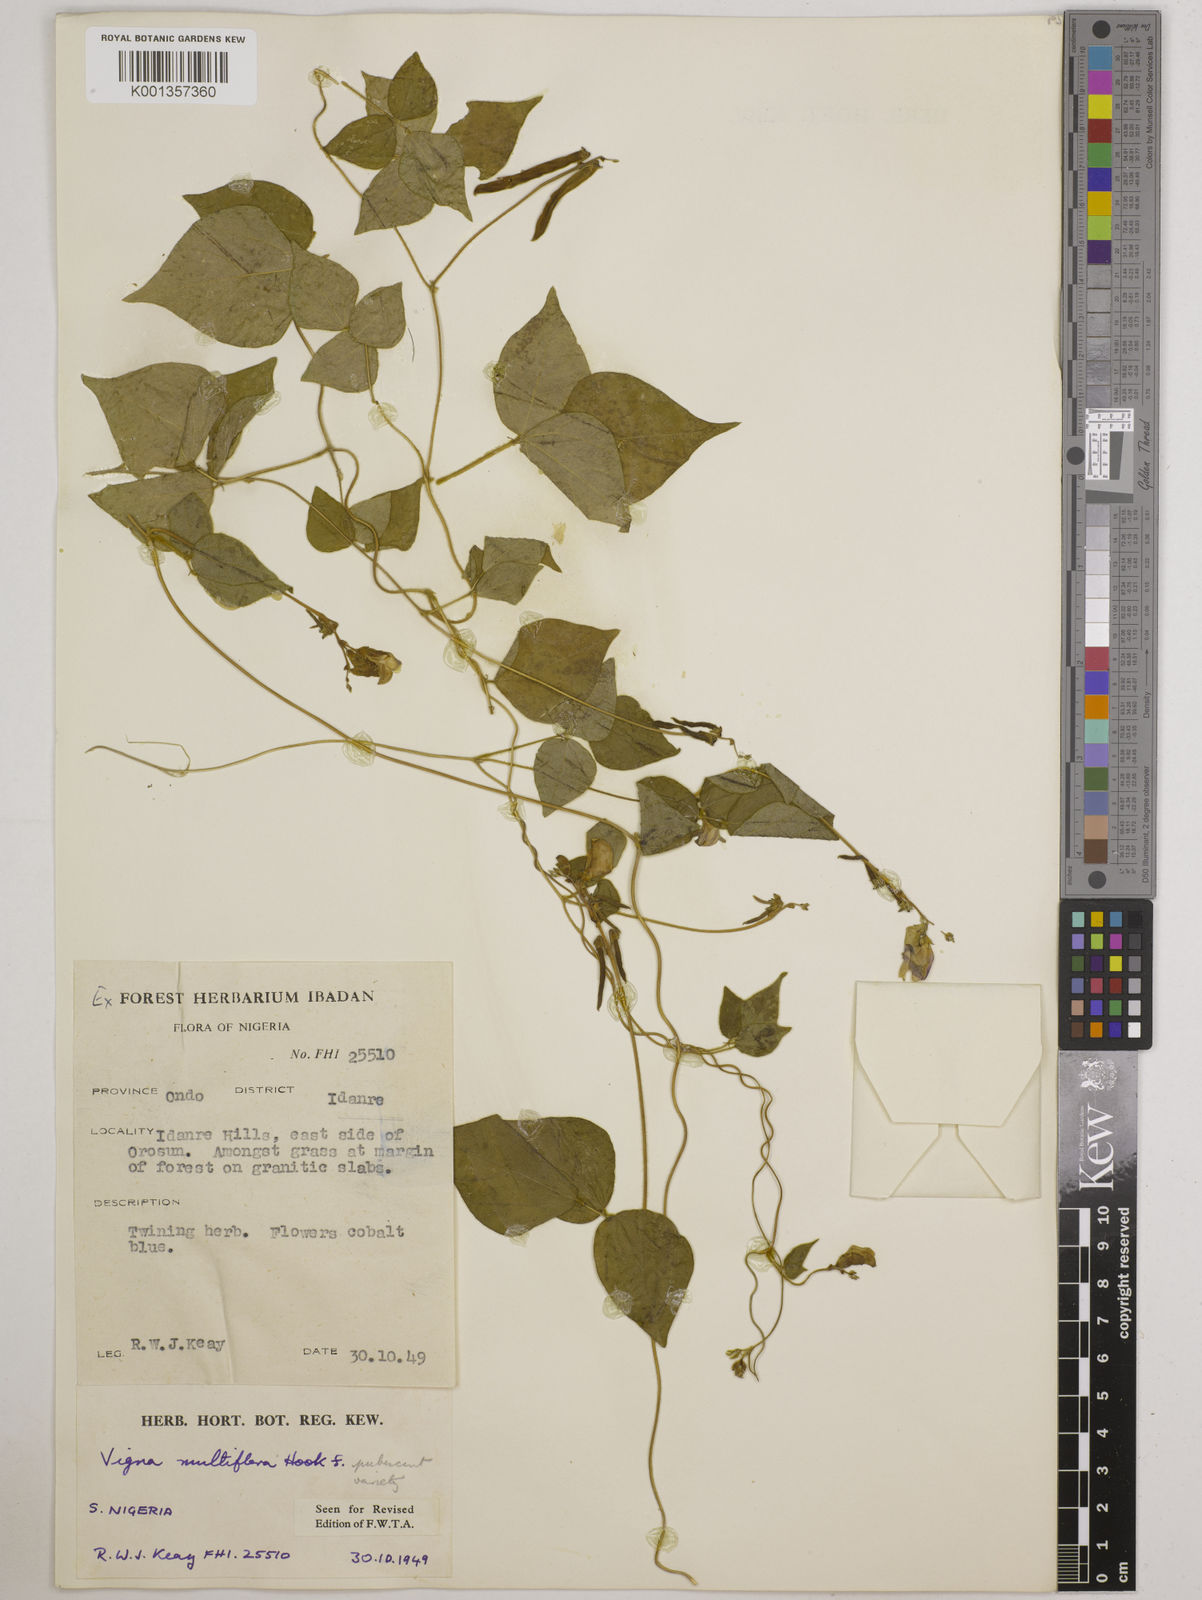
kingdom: Plantae
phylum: Tracheophyta
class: Magnoliopsida
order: Fabales
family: Fabaceae
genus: Vigna
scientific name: Vigna gracilis
